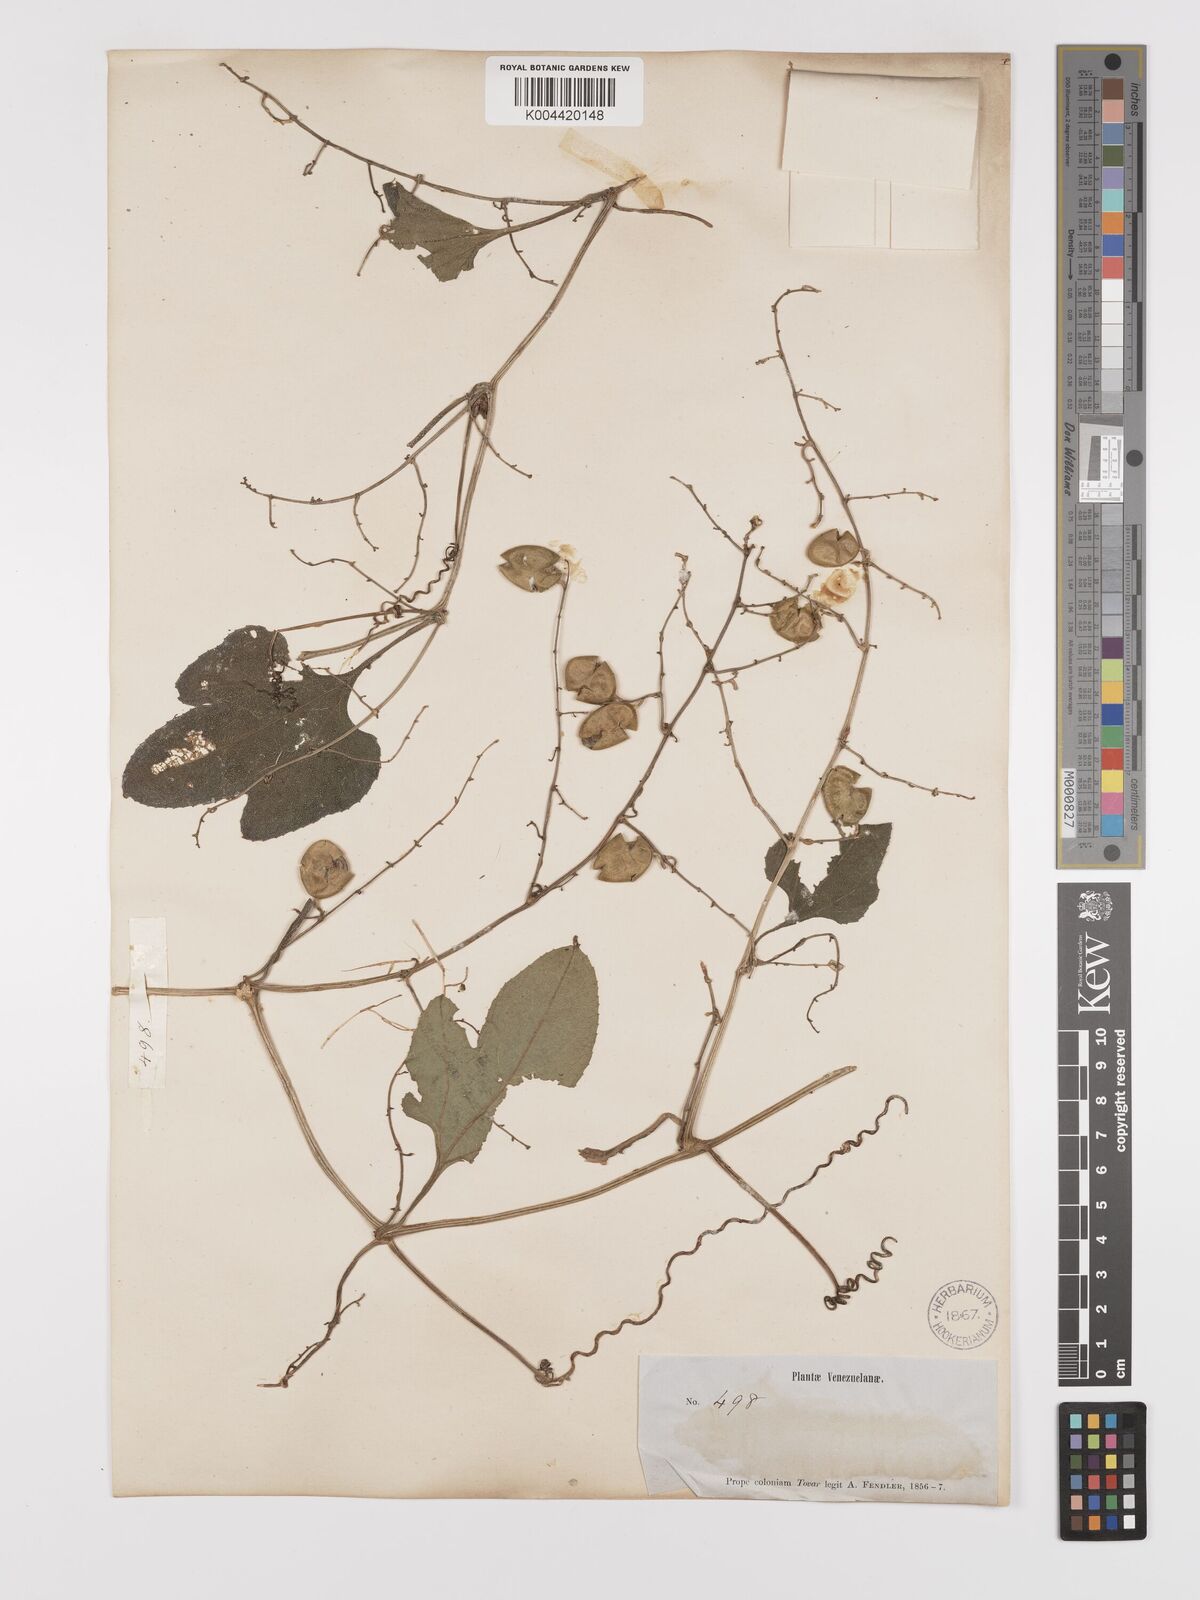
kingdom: Plantae
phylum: Tracheophyta
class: Magnoliopsida
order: Cucurbitales
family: Cucurbitaceae
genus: Cayaponia
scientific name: Cayaponia racemosa
